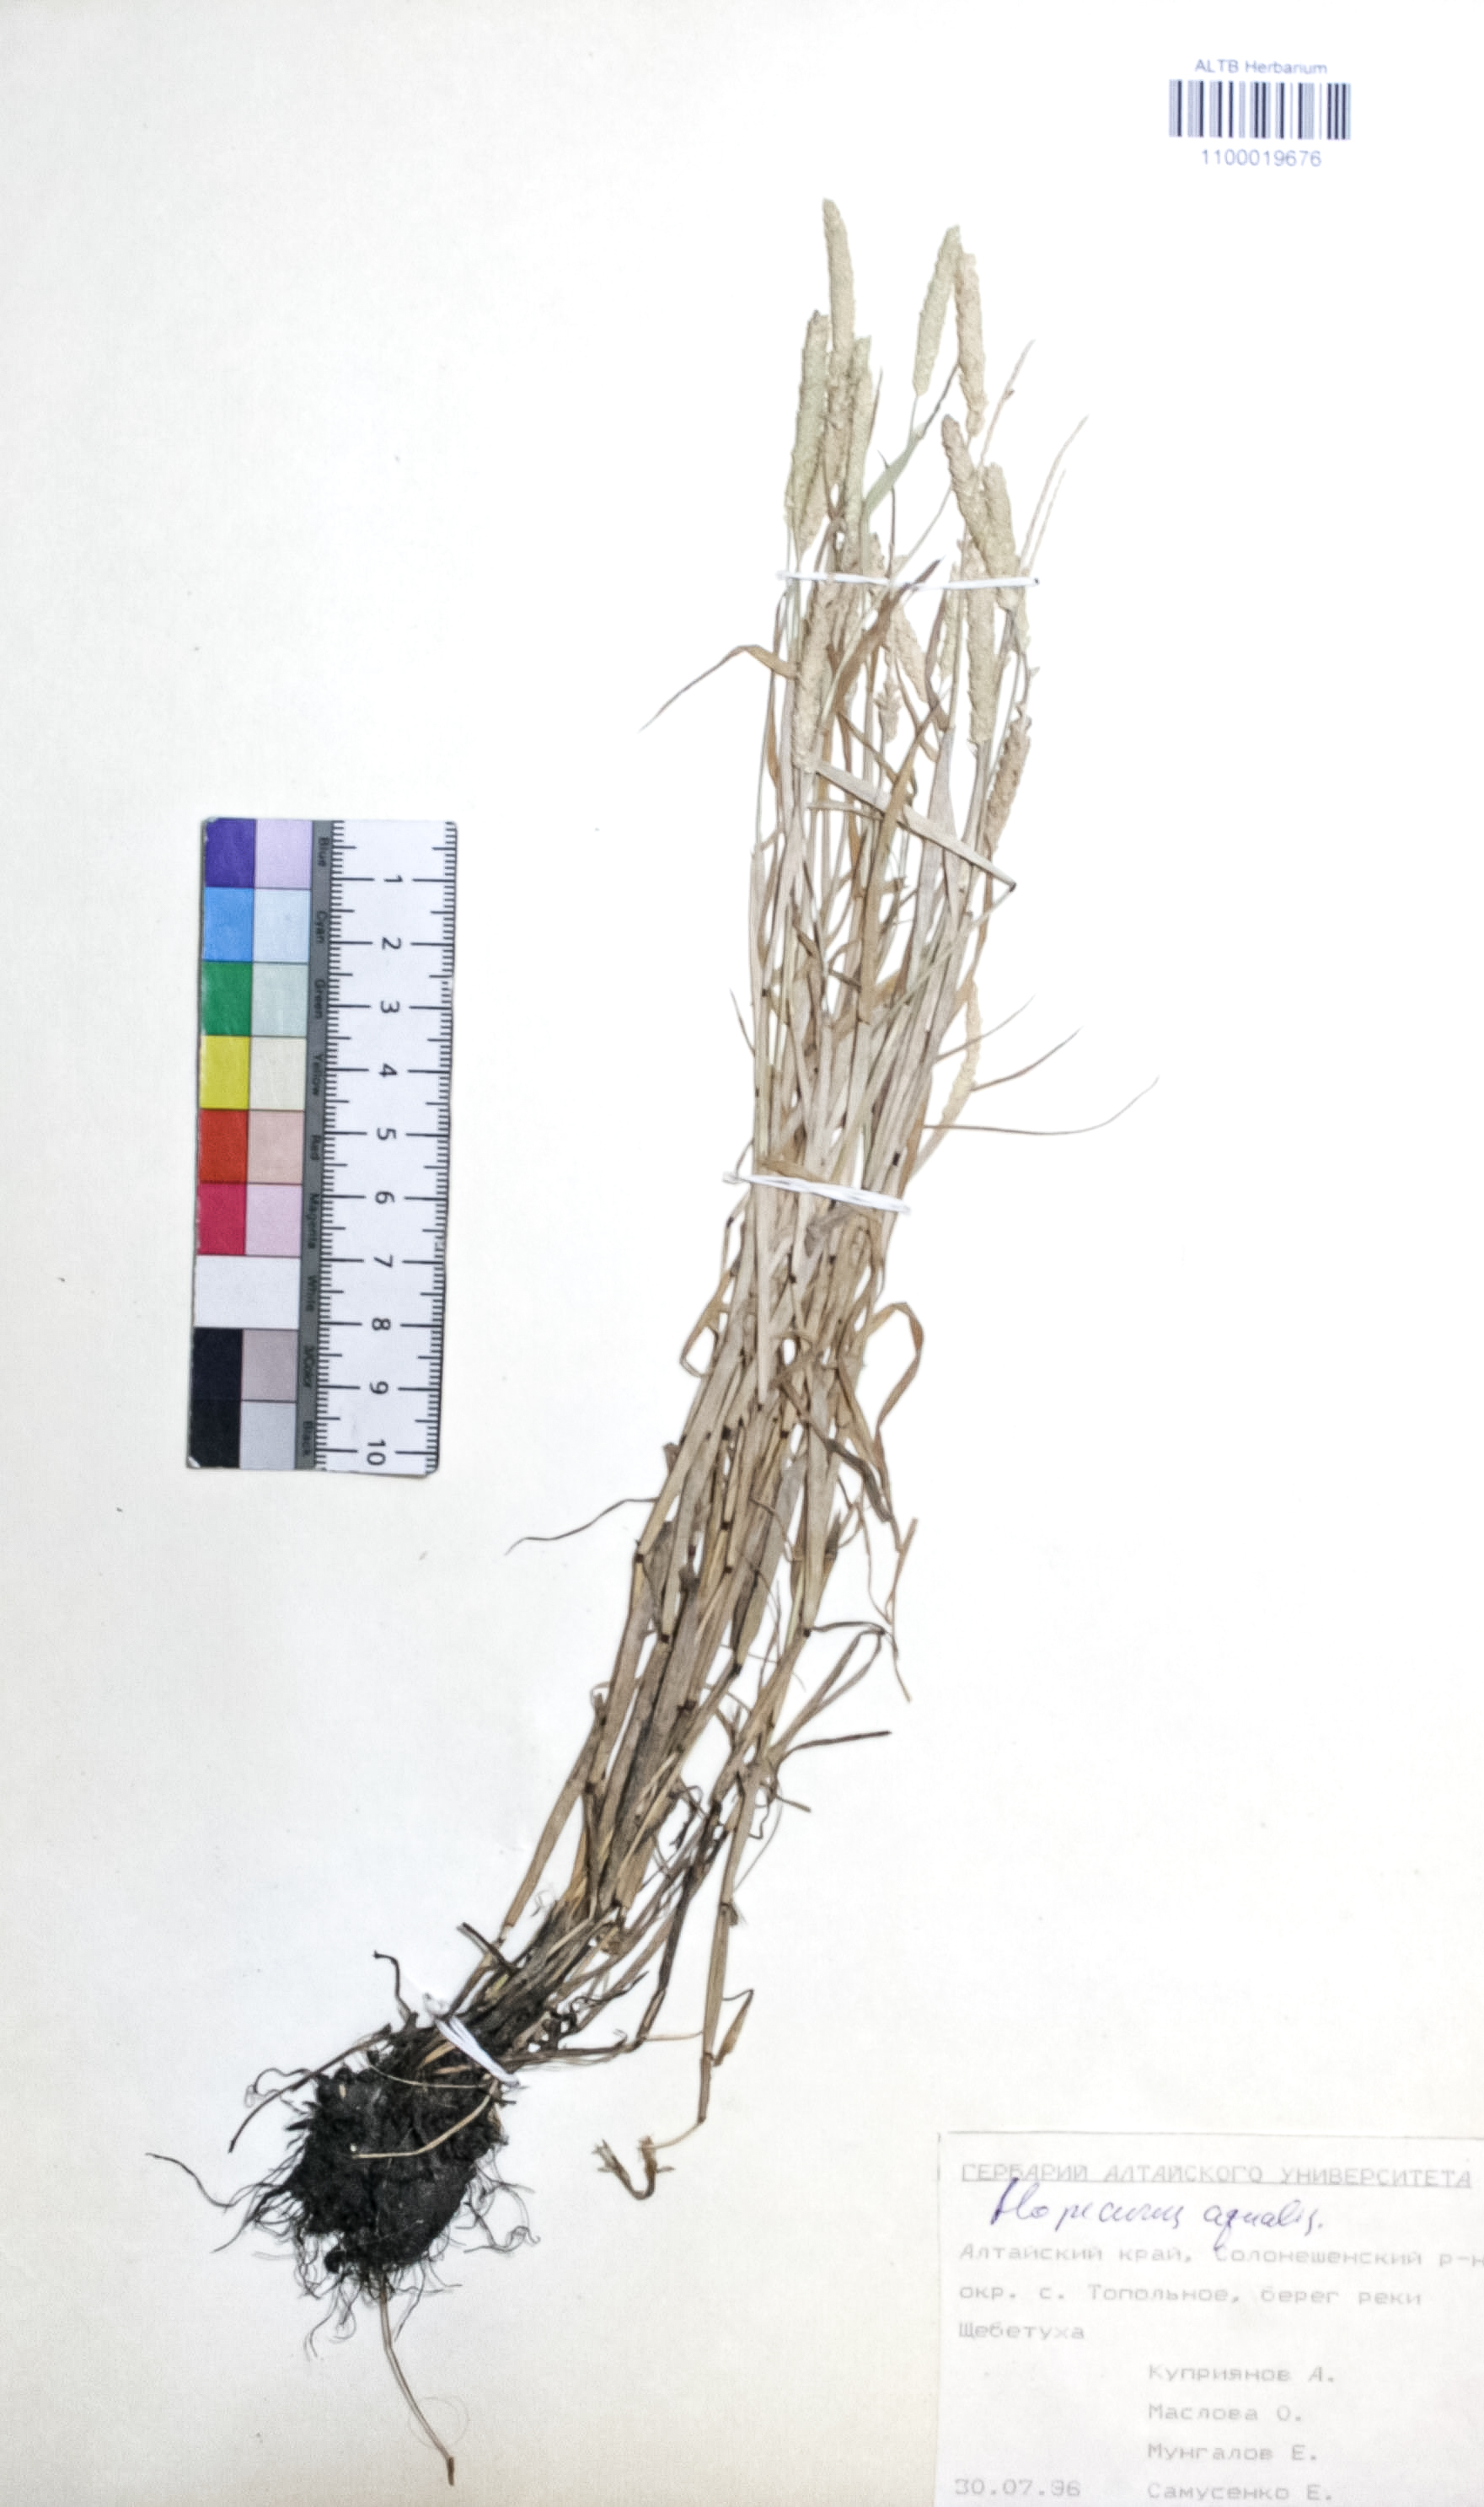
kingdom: Plantae
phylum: Tracheophyta
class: Liliopsida
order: Poales
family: Poaceae
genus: Alopecurus
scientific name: Alopecurus aequalis
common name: Orange foxtail
